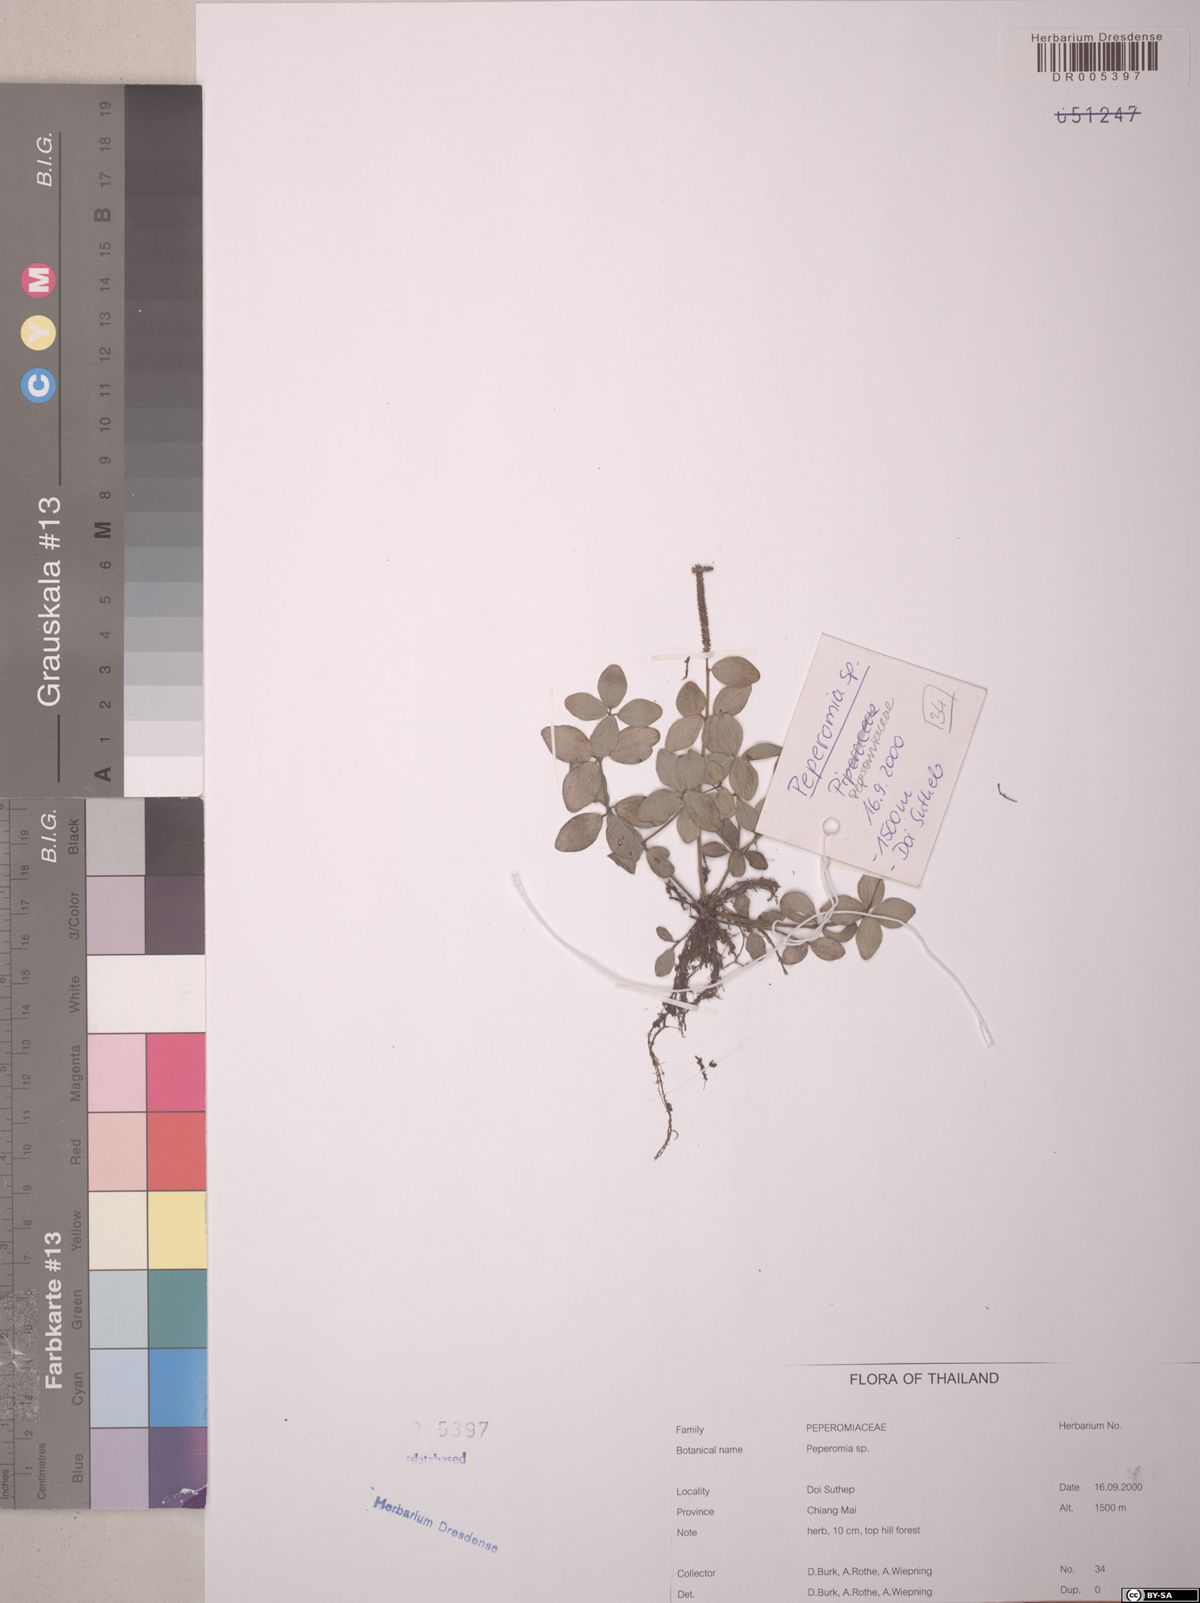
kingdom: Plantae
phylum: Tracheophyta
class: Magnoliopsida
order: Piperales
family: Piperaceae
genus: Peperomia
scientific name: Peperomia
